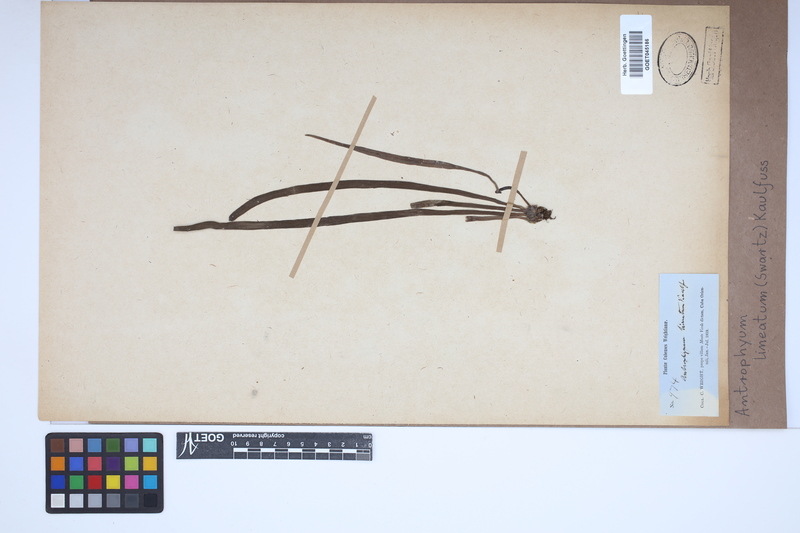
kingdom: Plantae
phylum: Tracheophyta
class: Polypodiopsida
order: Polypodiales
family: Pteridaceae
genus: Polytaenium
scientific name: Polytaenium lineatum
